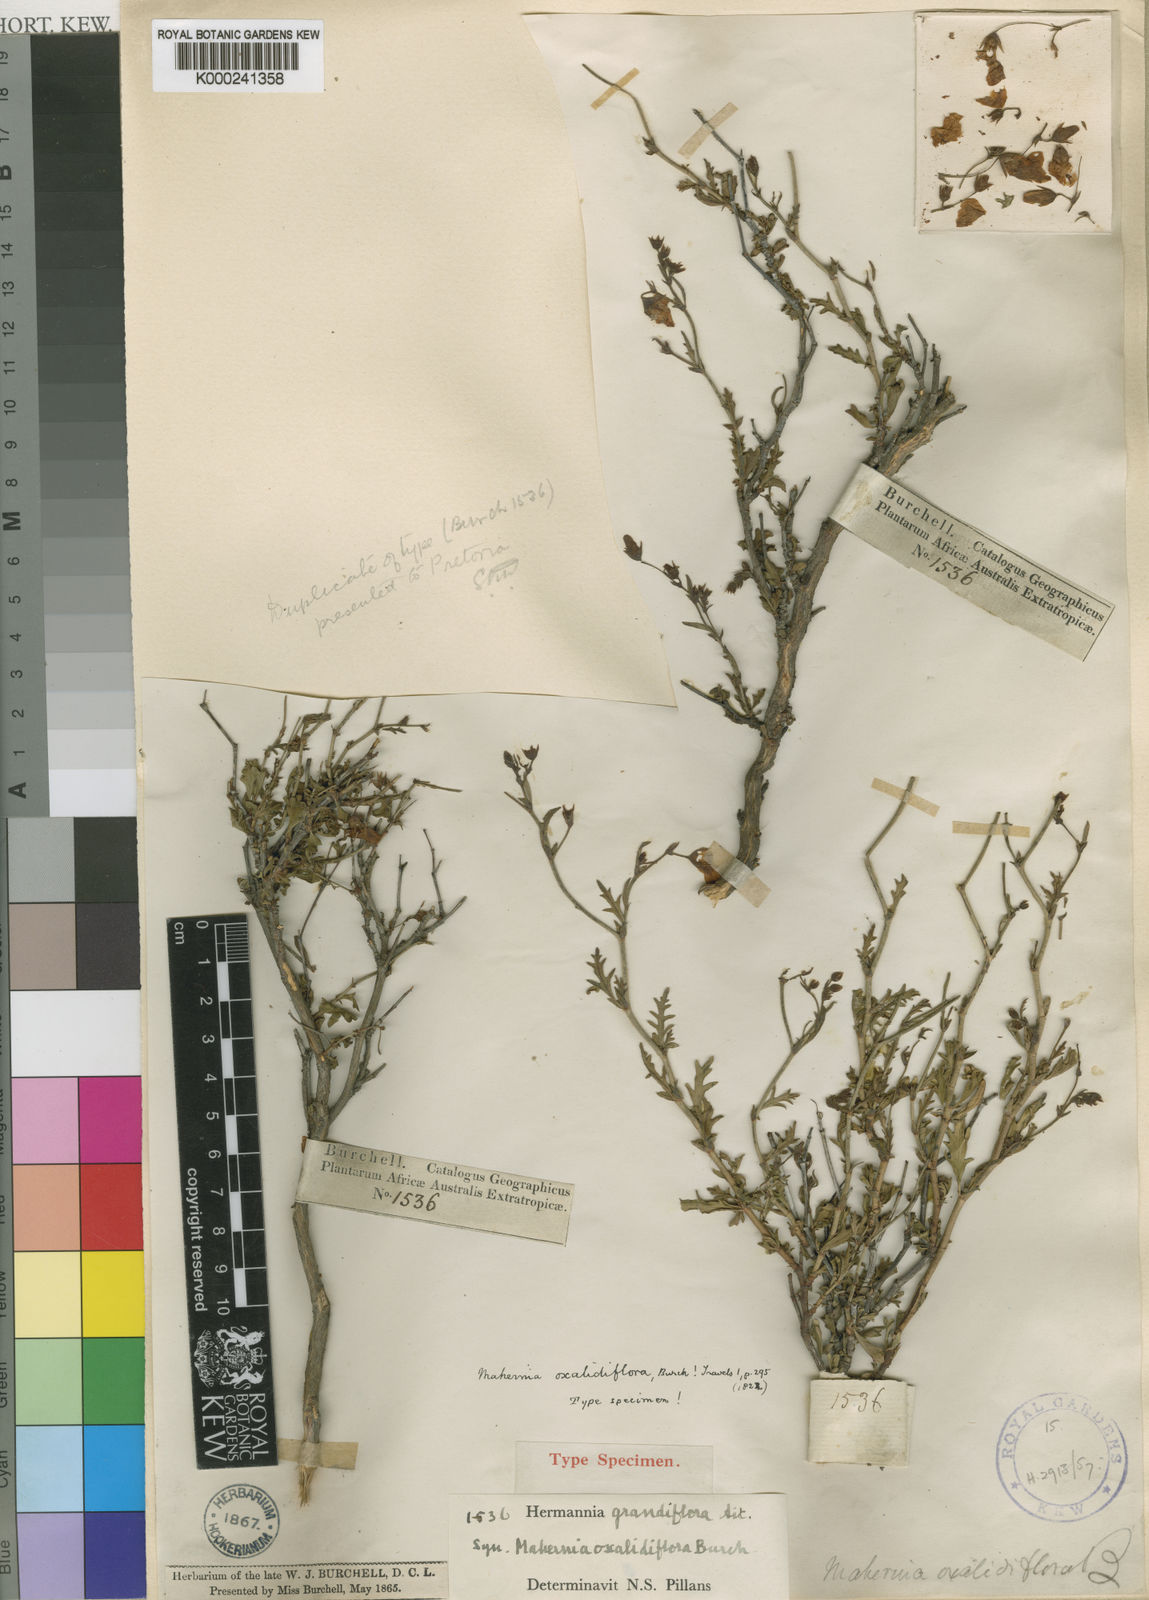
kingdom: Plantae
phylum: Tracheophyta
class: Magnoliopsida
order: Malvales
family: Malvaceae
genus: Hermannia
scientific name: Hermannia grandiflora
